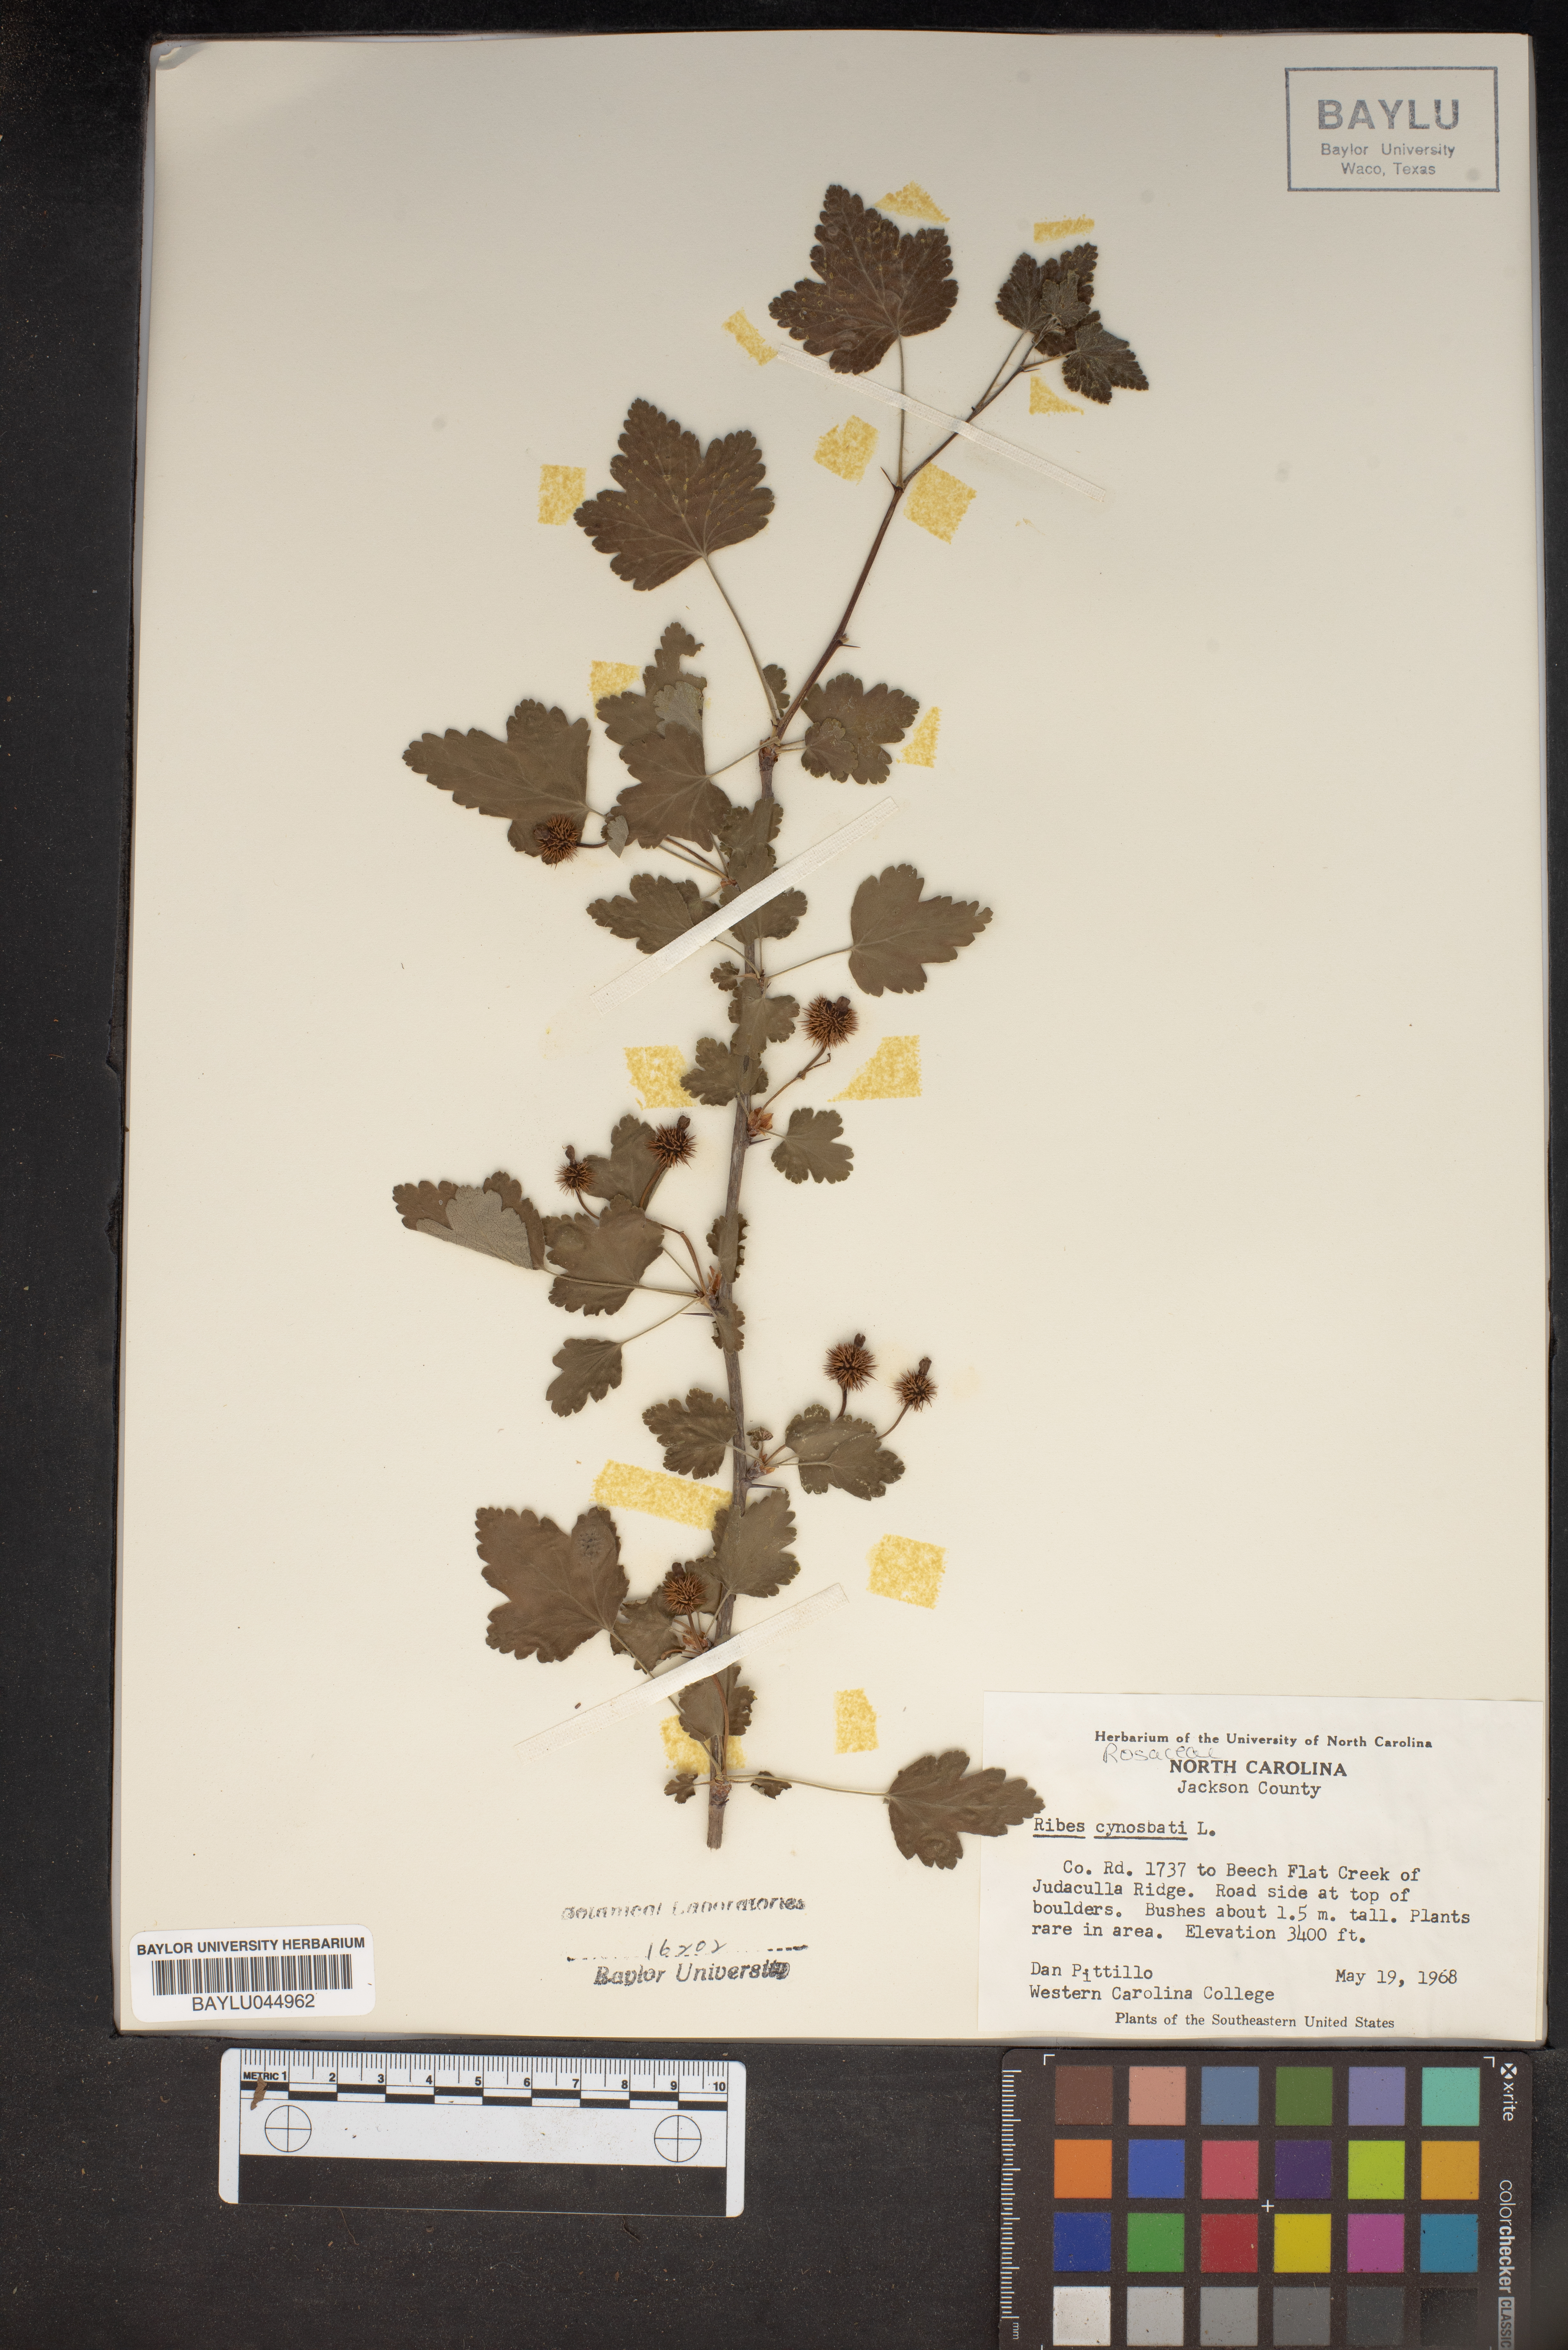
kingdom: Plantae
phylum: Tracheophyta
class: Magnoliopsida
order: Saxifragales
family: Grossulariaceae
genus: Ribes
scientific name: Ribes cynosbati
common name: American gooseberry
